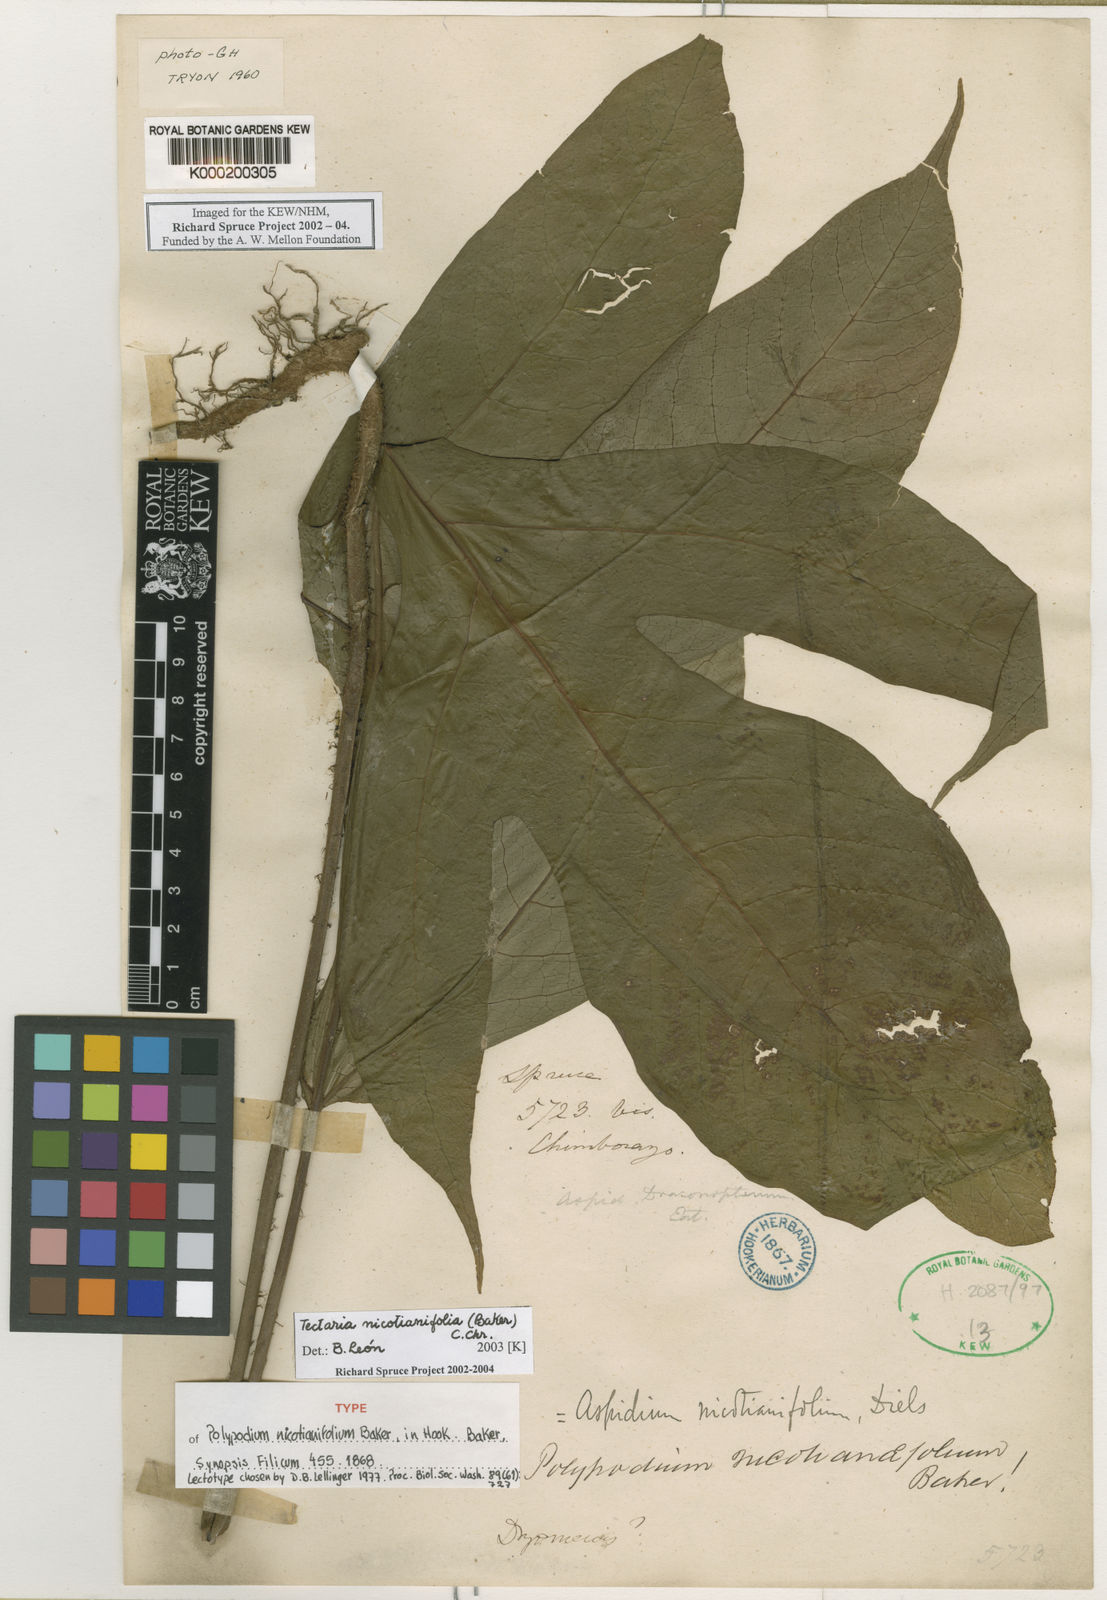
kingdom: Plantae
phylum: Tracheophyta
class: Polypodiopsida
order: Polypodiales
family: Tectariaceae
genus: Hypoderris
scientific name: Hypoderris nicotianifolia
